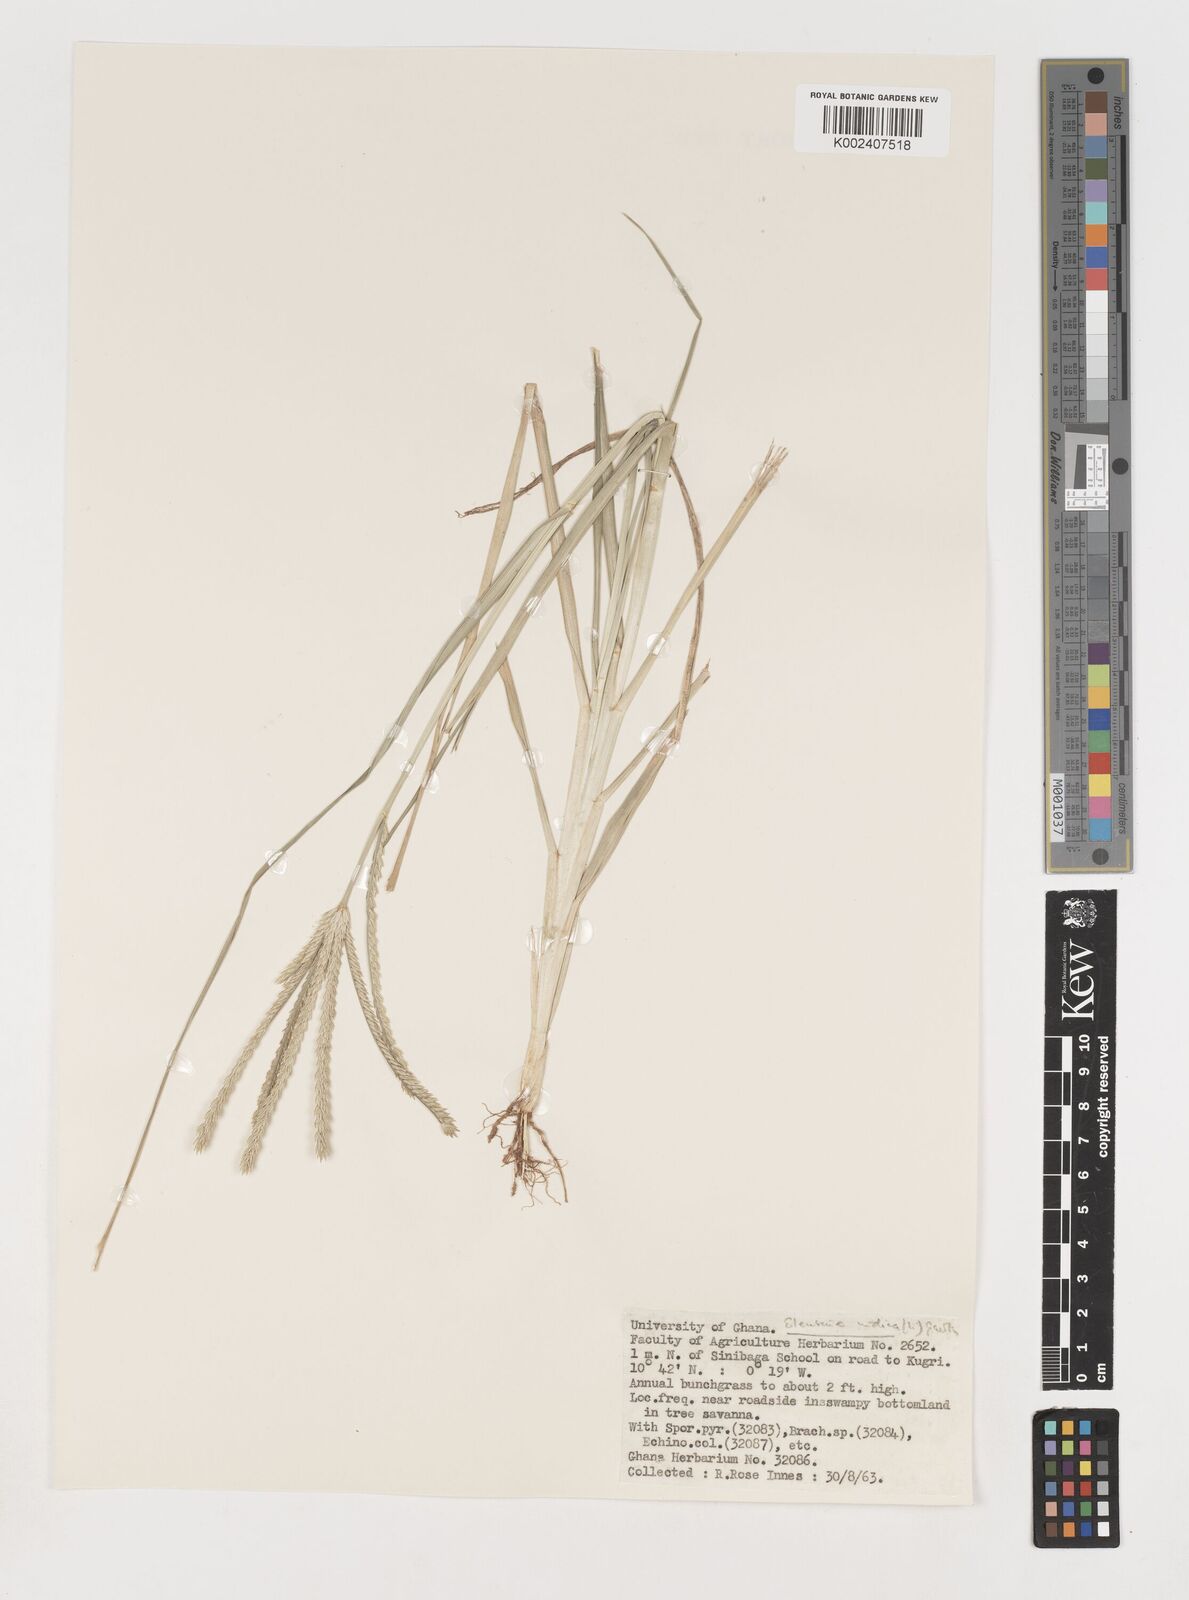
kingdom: Plantae
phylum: Tracheophyta
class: Liliopsida
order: Poales
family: Poaceae
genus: Eleusine
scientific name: Eleusine africana
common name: Wild african finger millet
